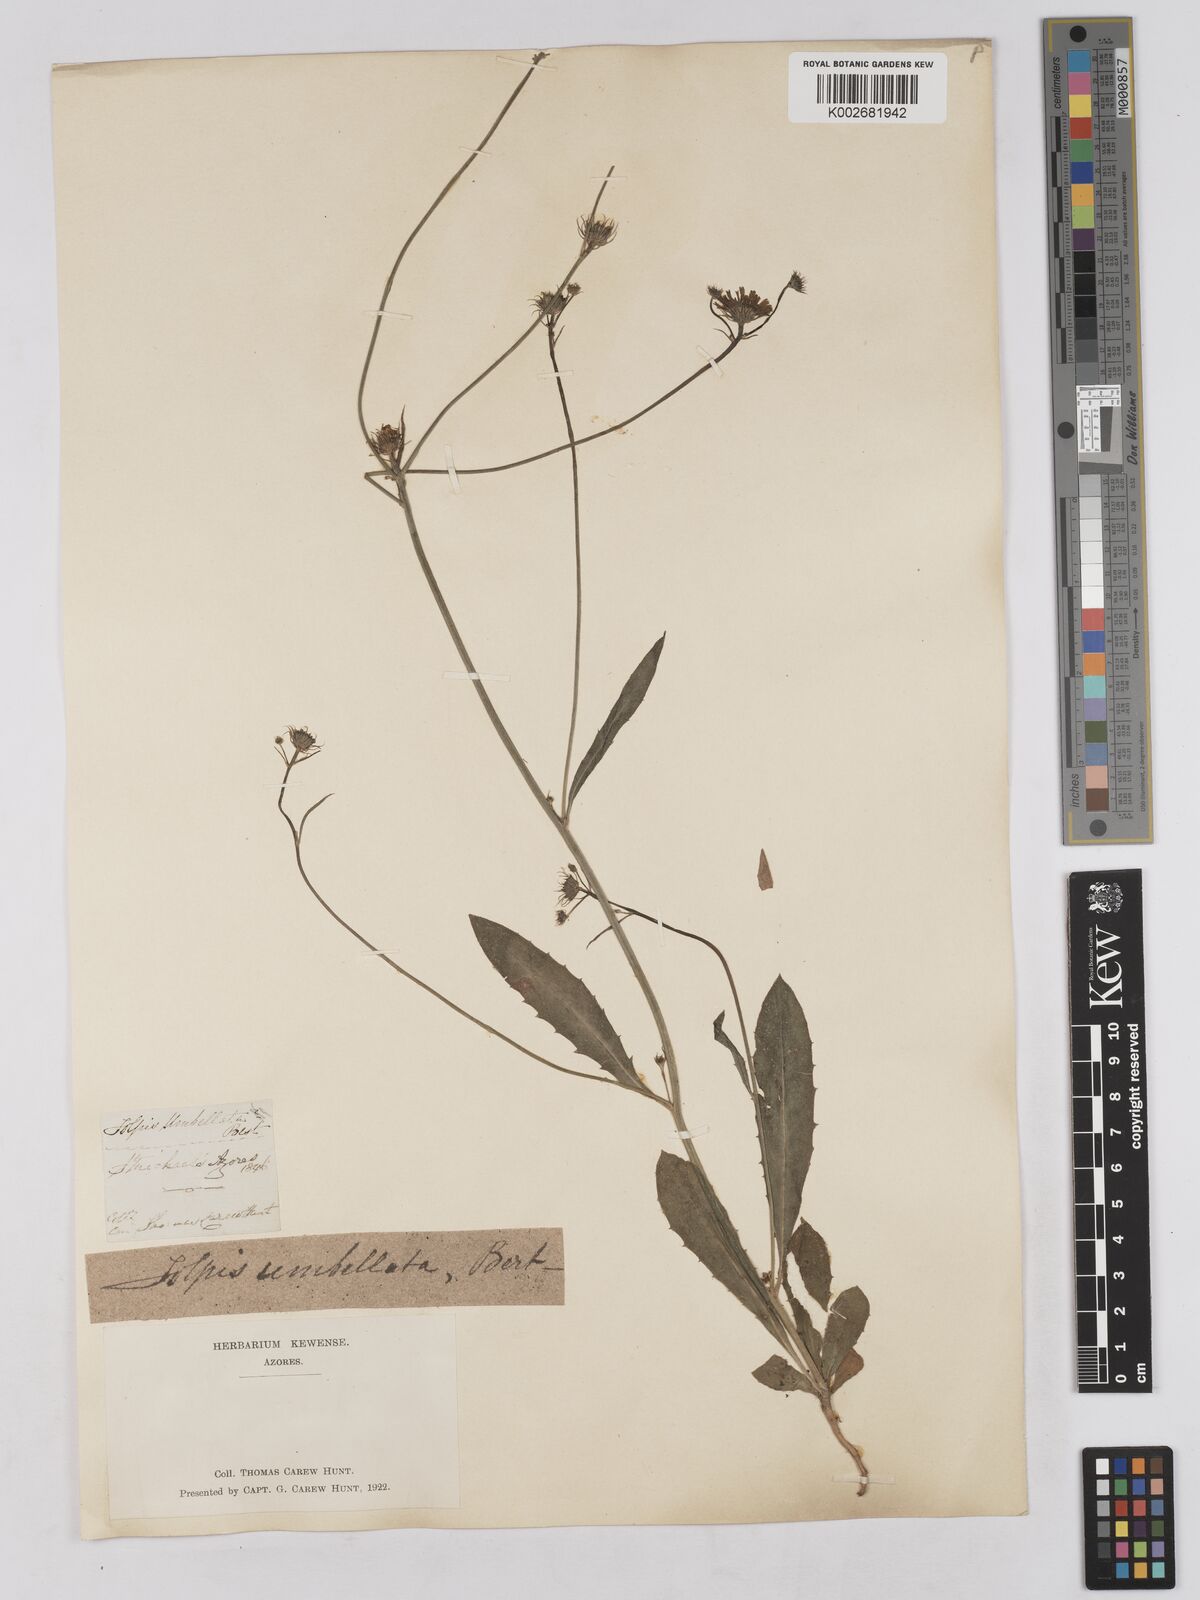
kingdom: Plantae
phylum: Tracheophyta
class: Magnoliopsida
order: Asterales
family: Asteraceae
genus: Tolpis
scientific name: Tolpis umbellata
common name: Yellow hawkweed
